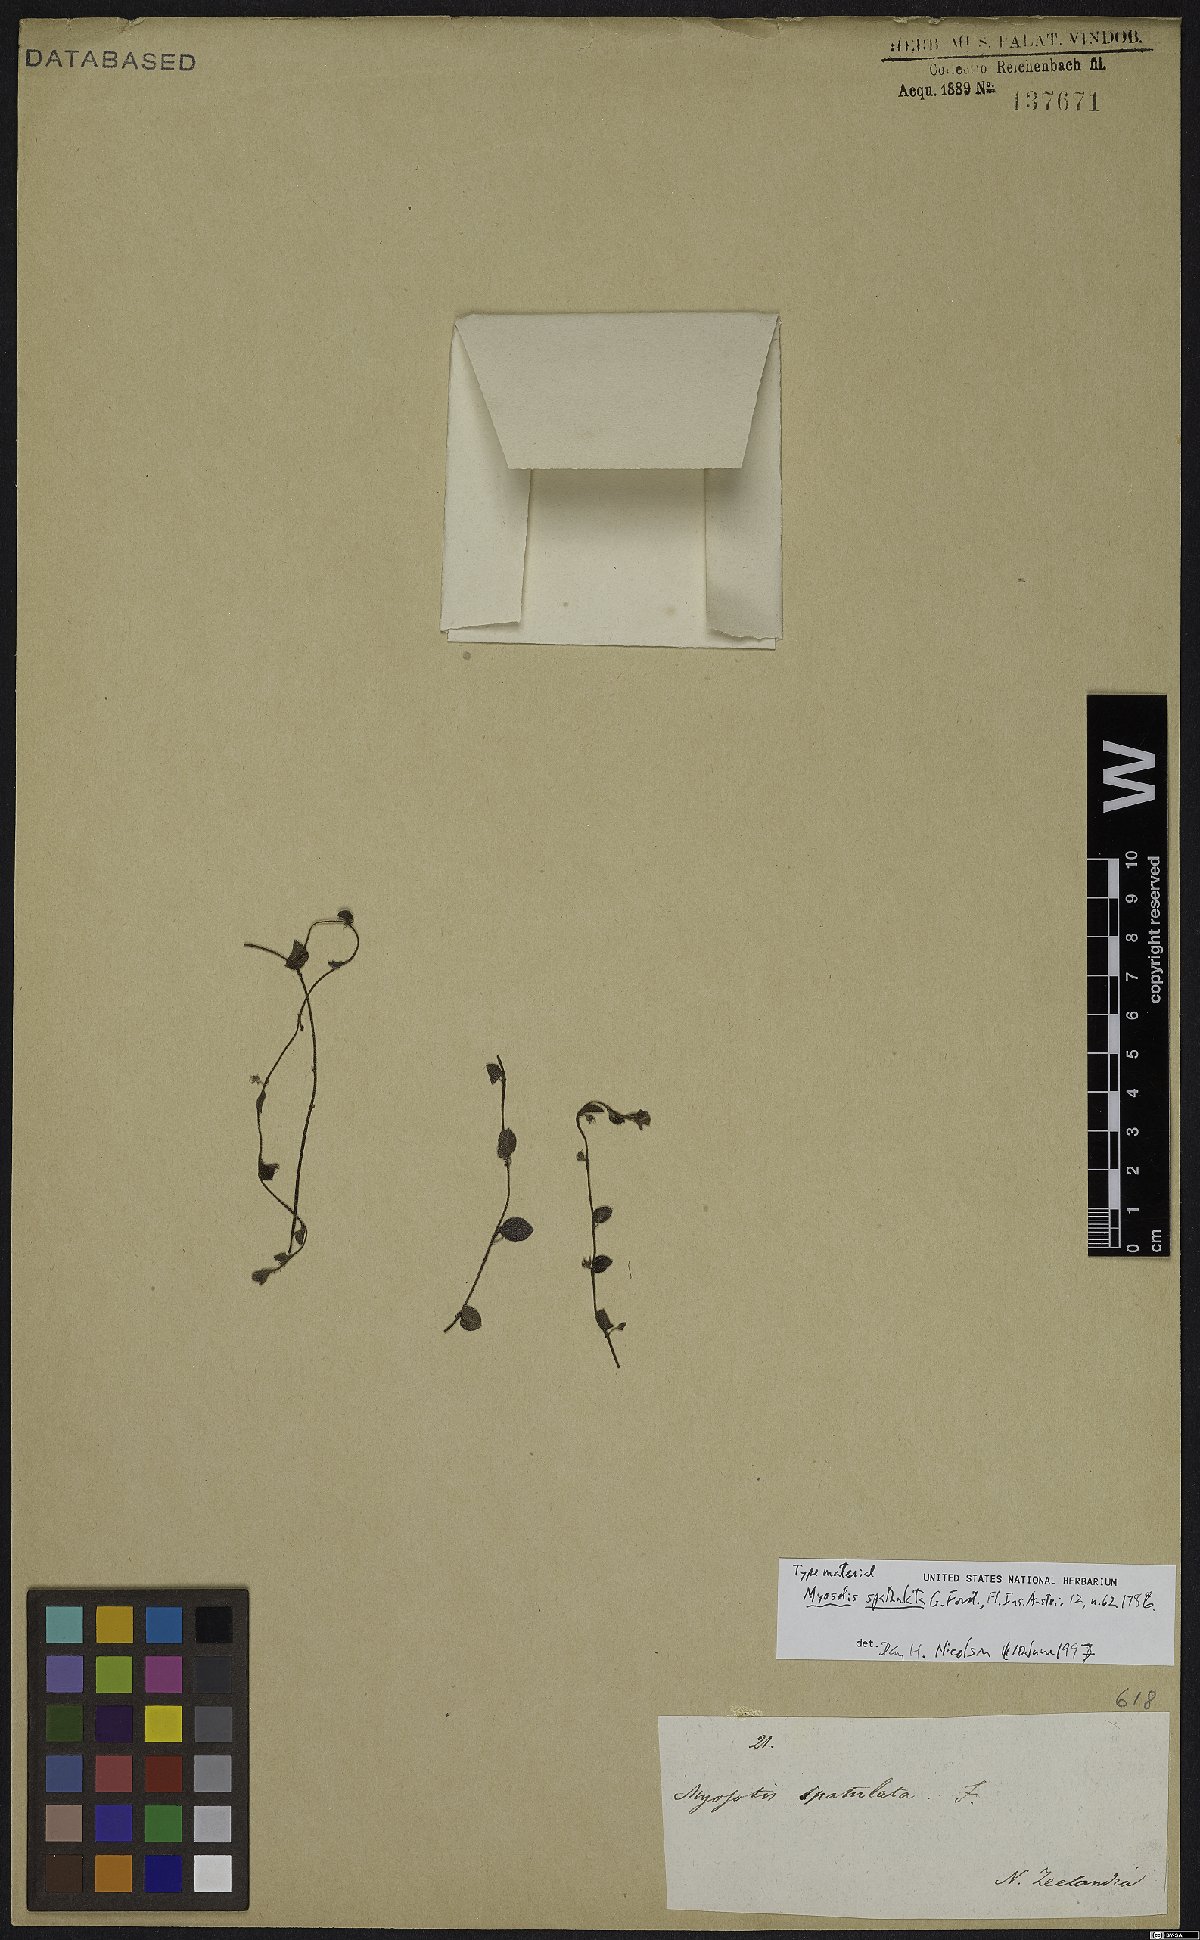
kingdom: Plantae
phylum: Tracheophyta
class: Magnoliopsida
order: Boraginales
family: Boraginaceae
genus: Myosotis
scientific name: Myosotis spathulata
